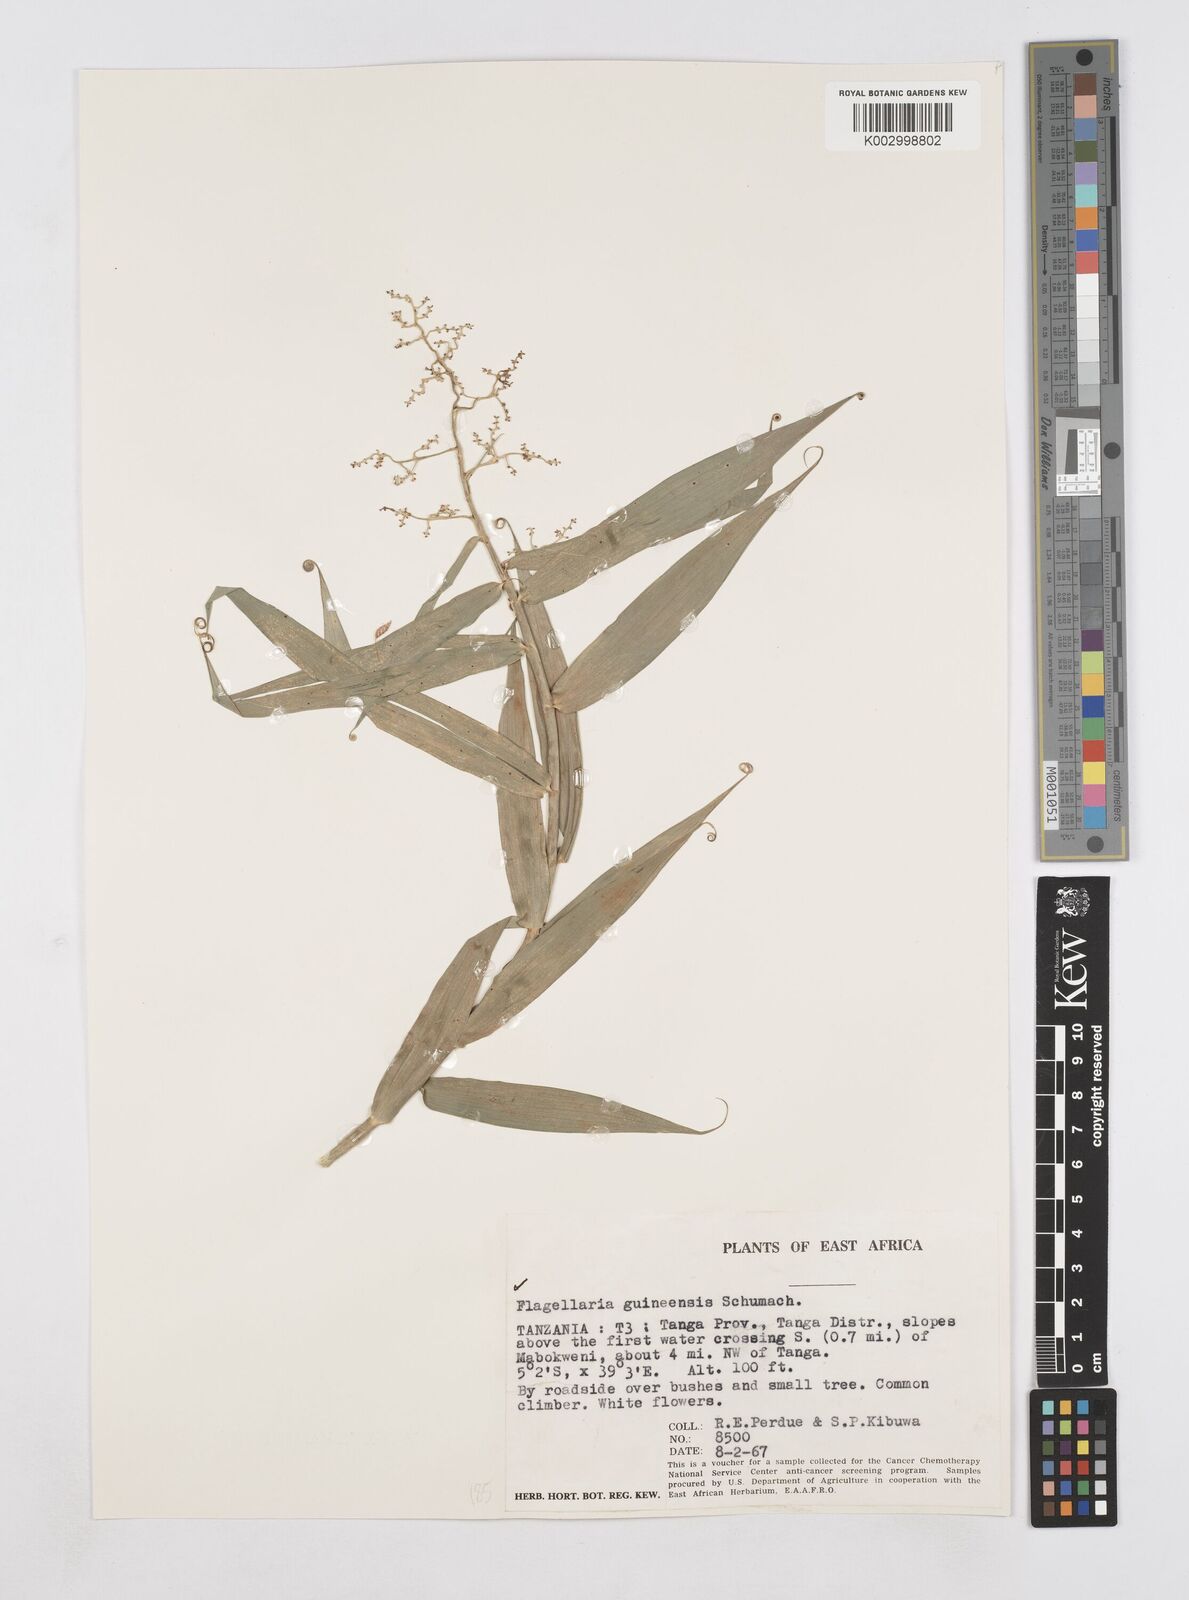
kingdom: Plantae
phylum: Tracheophyta
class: Liliopsida
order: Poales
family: Flagellariaceae
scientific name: Flagellariaceae
